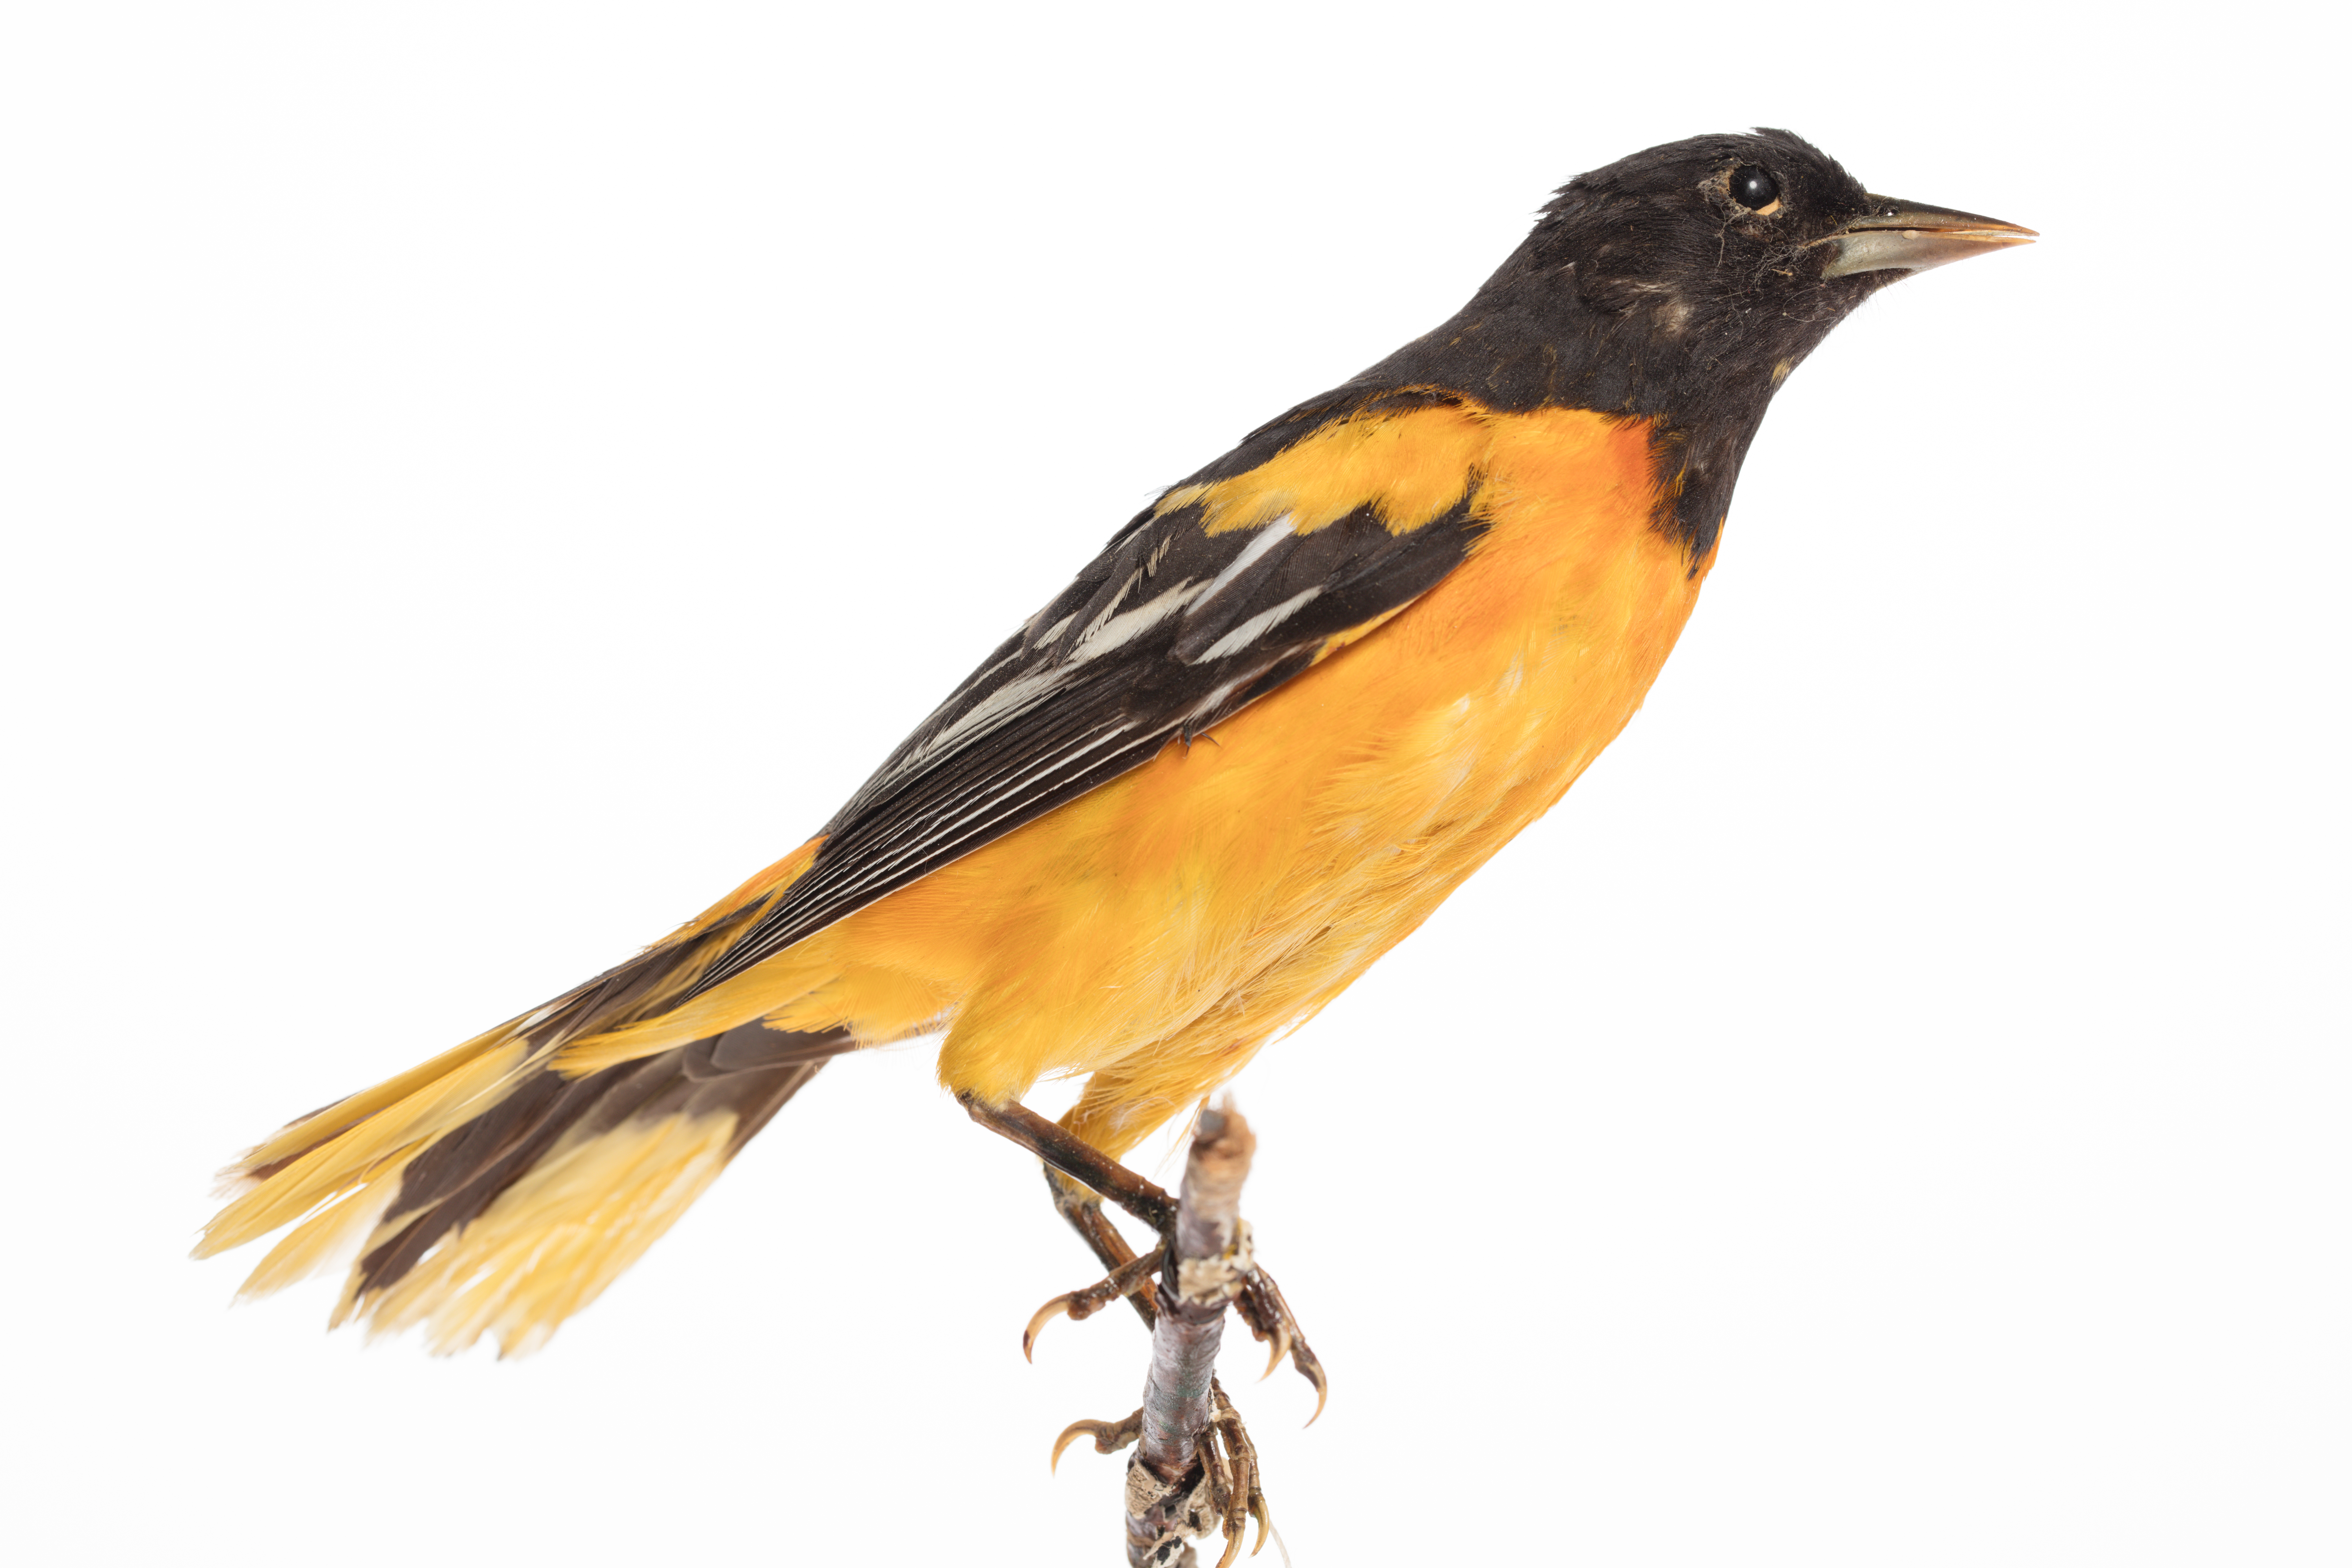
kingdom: Animalia
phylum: Chordata
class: Aves
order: Passeriformes
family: Icteridae
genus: Icterus
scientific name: Icterus galbula
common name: Baltimore oriole
